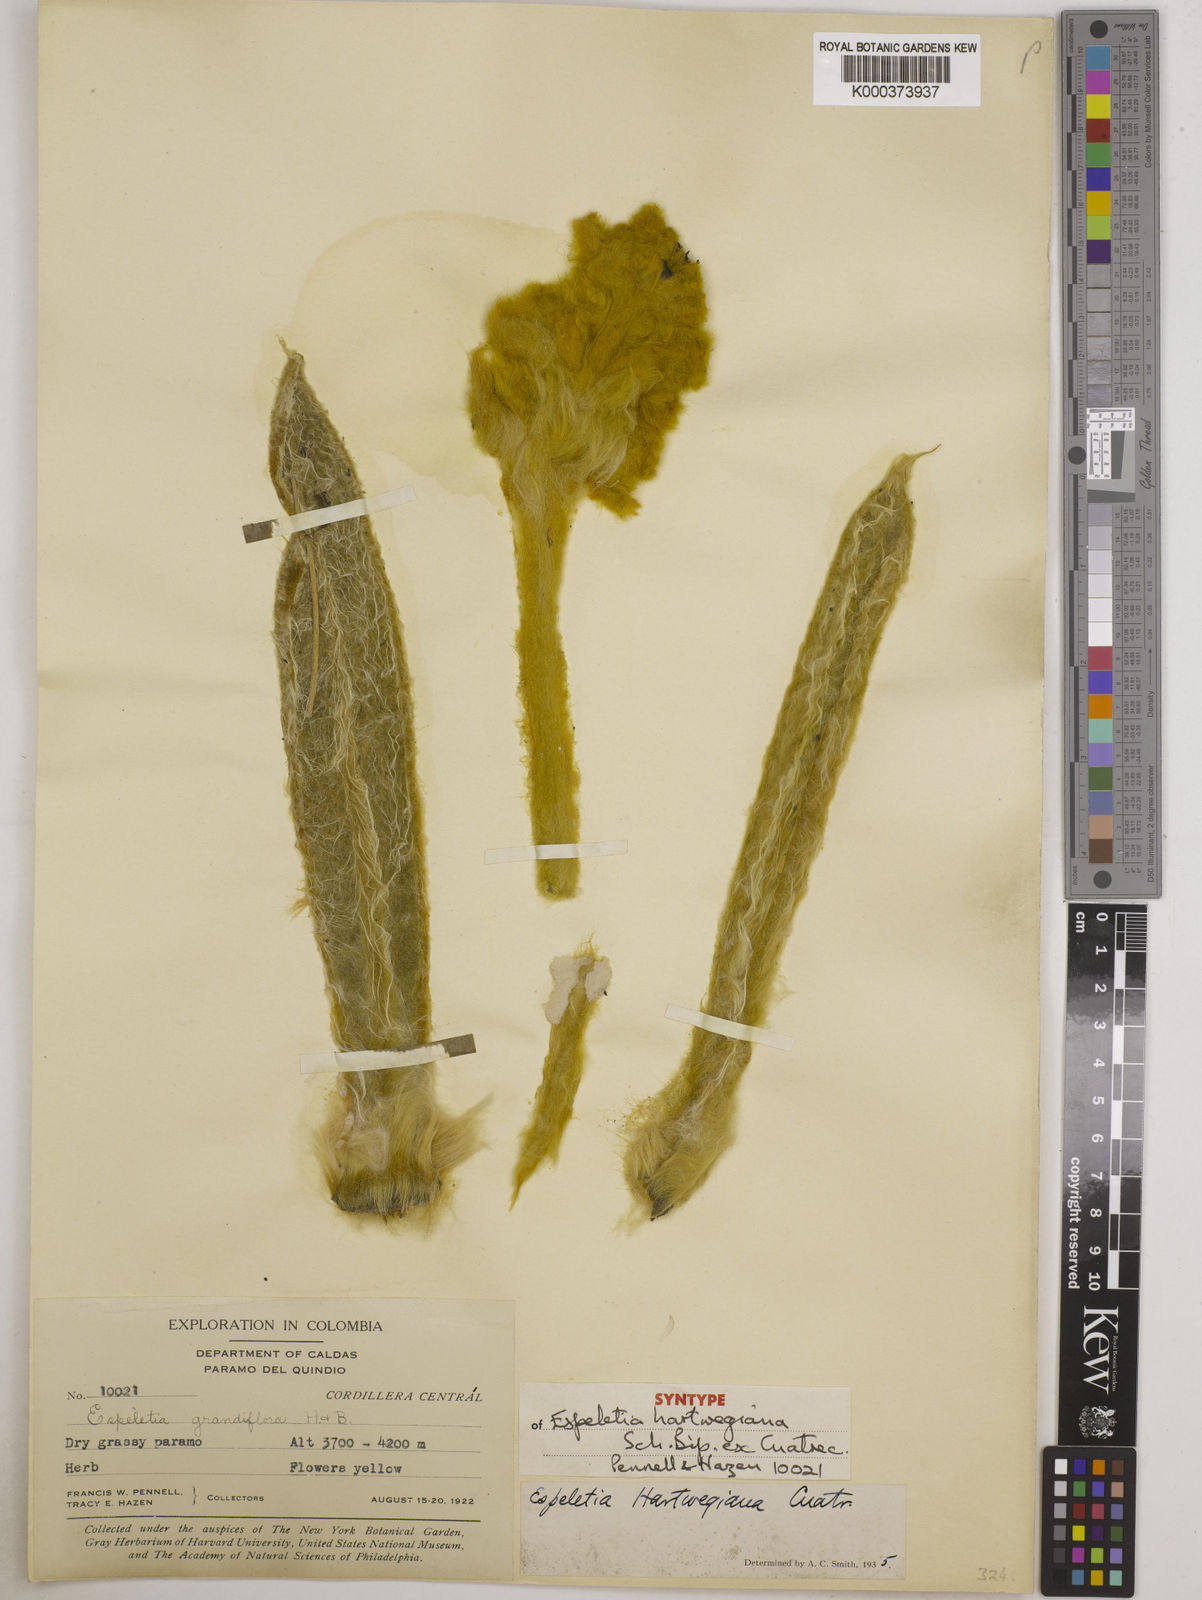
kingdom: Plantae
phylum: Tracheophyta
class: Magnoliopsida
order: Asterales
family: Asteraceae
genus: Espeletia
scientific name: Espeletia hartwegiana
